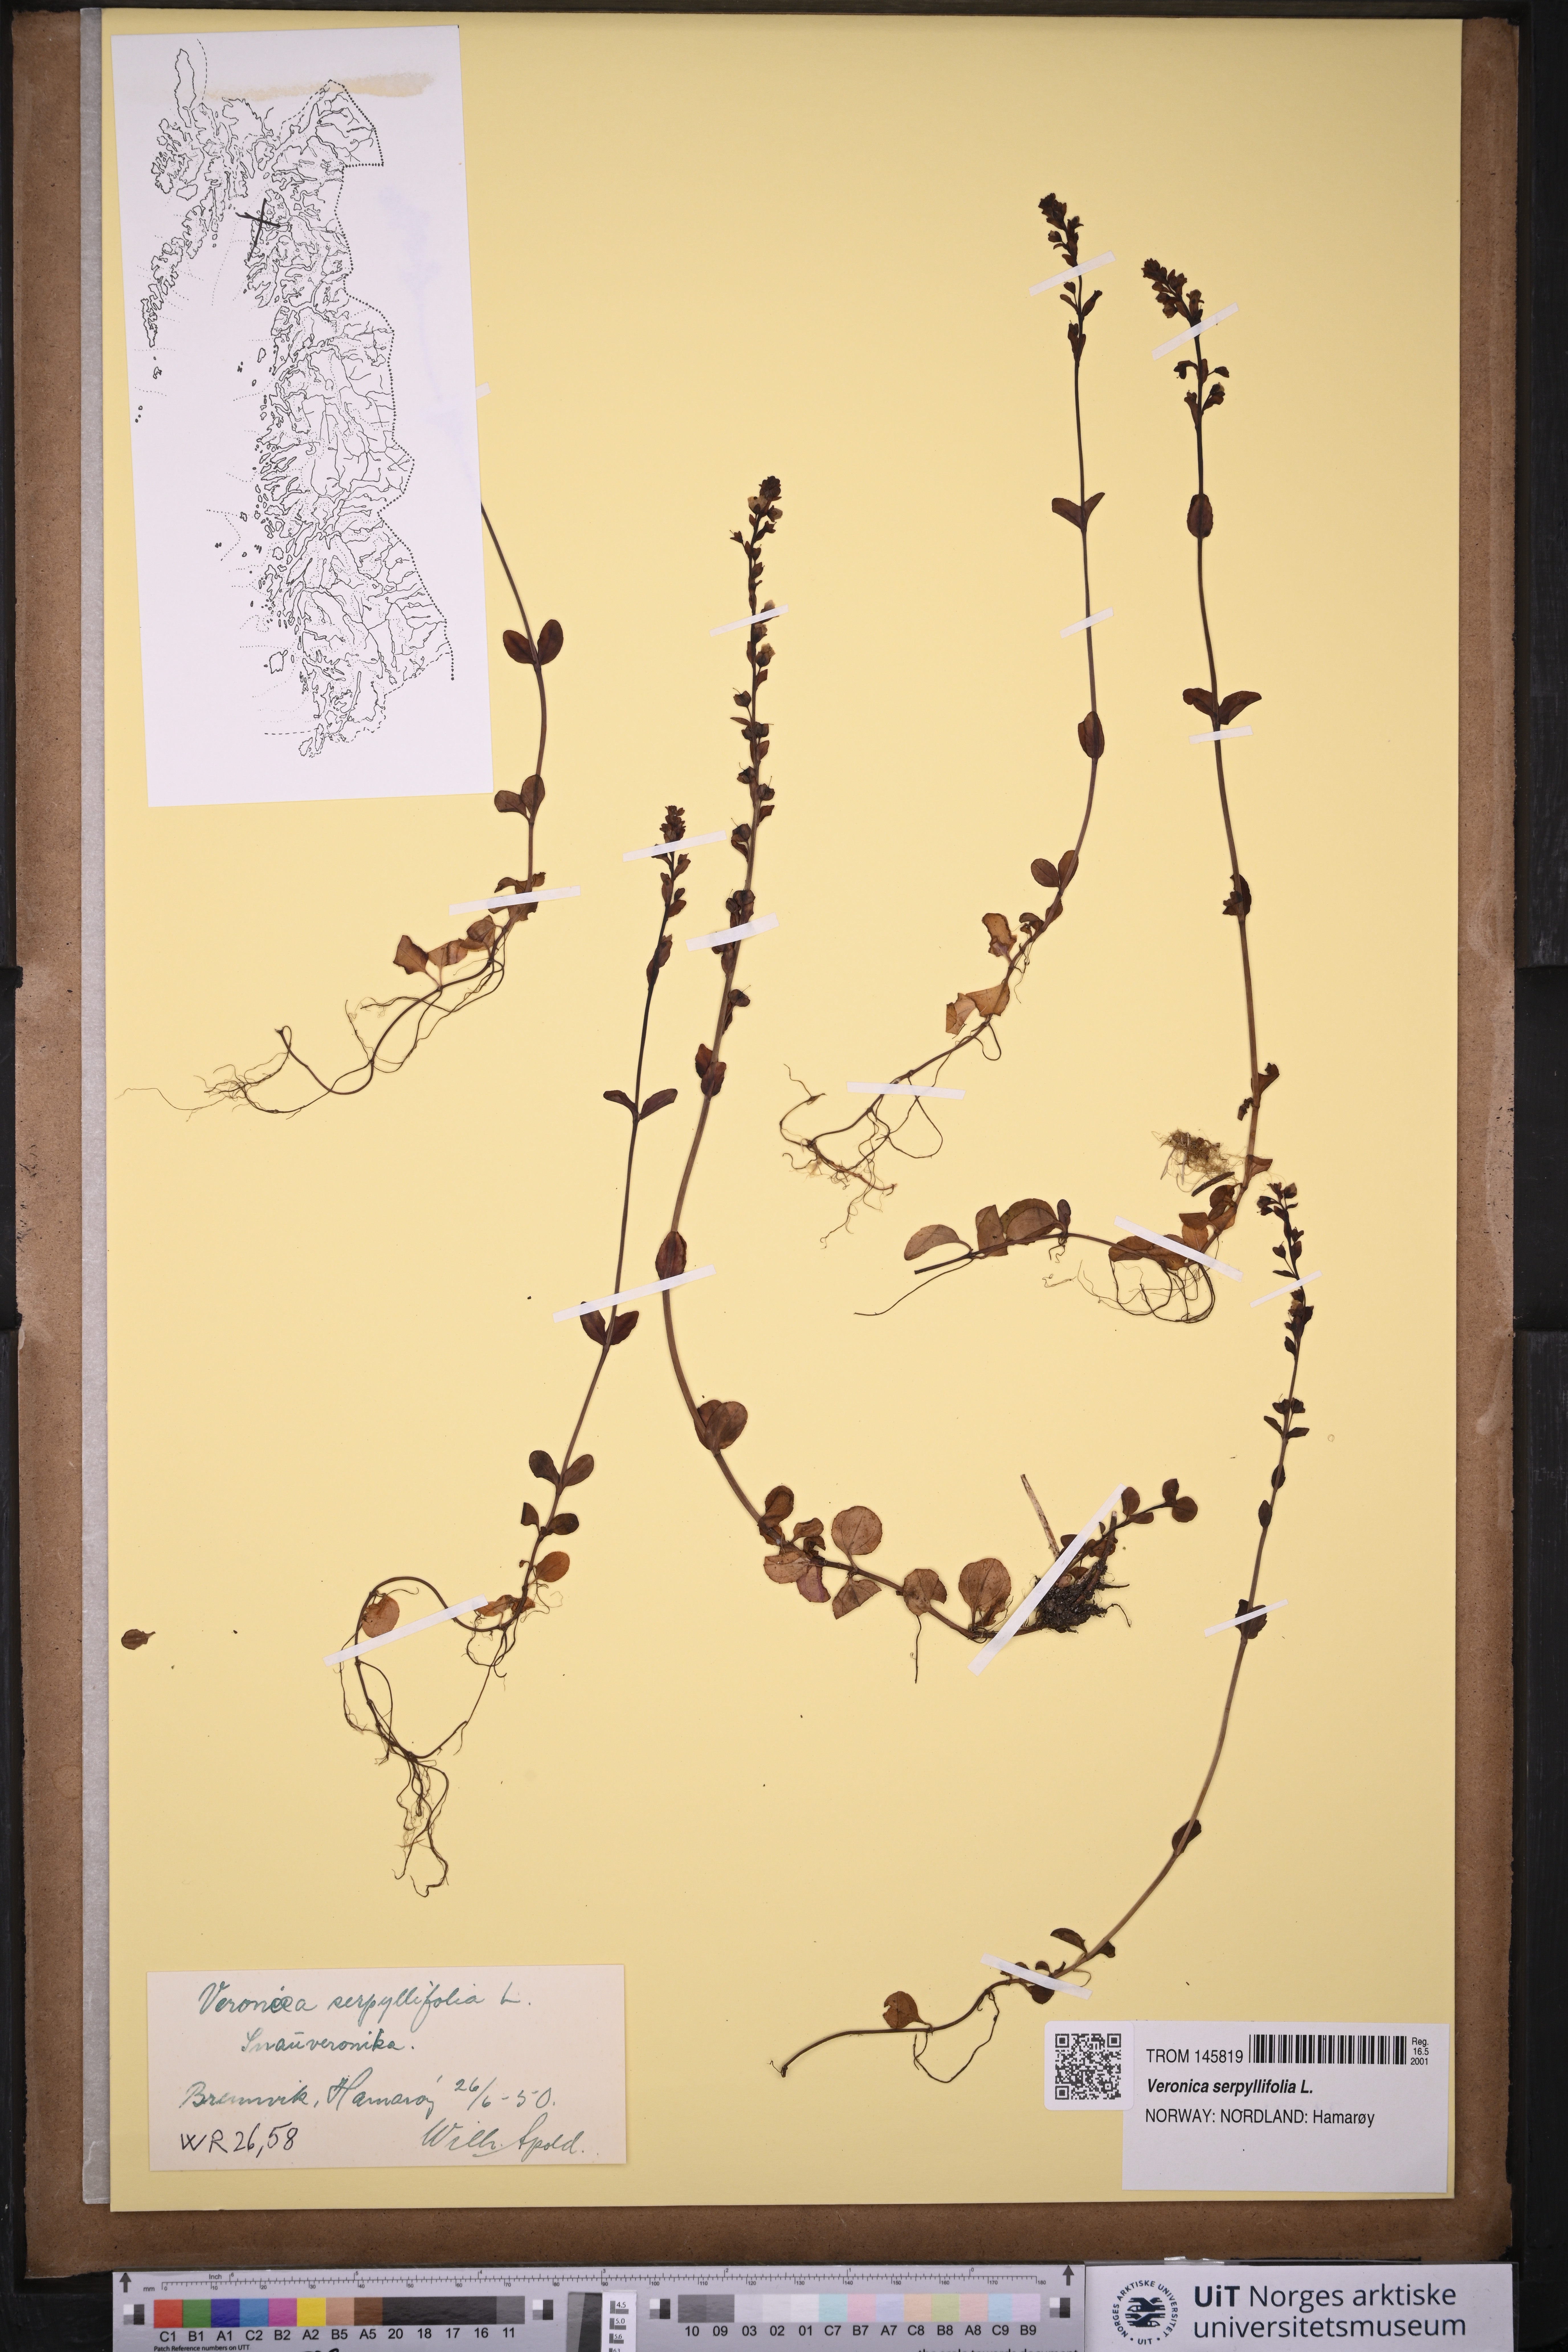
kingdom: Plantae
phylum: Tracheophyta
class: Magnoliopsida
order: Lamiales
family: Plantaginaceae
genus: Veronica
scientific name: Veronica serpyllifolia
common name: Thyme-leaved speedwell
